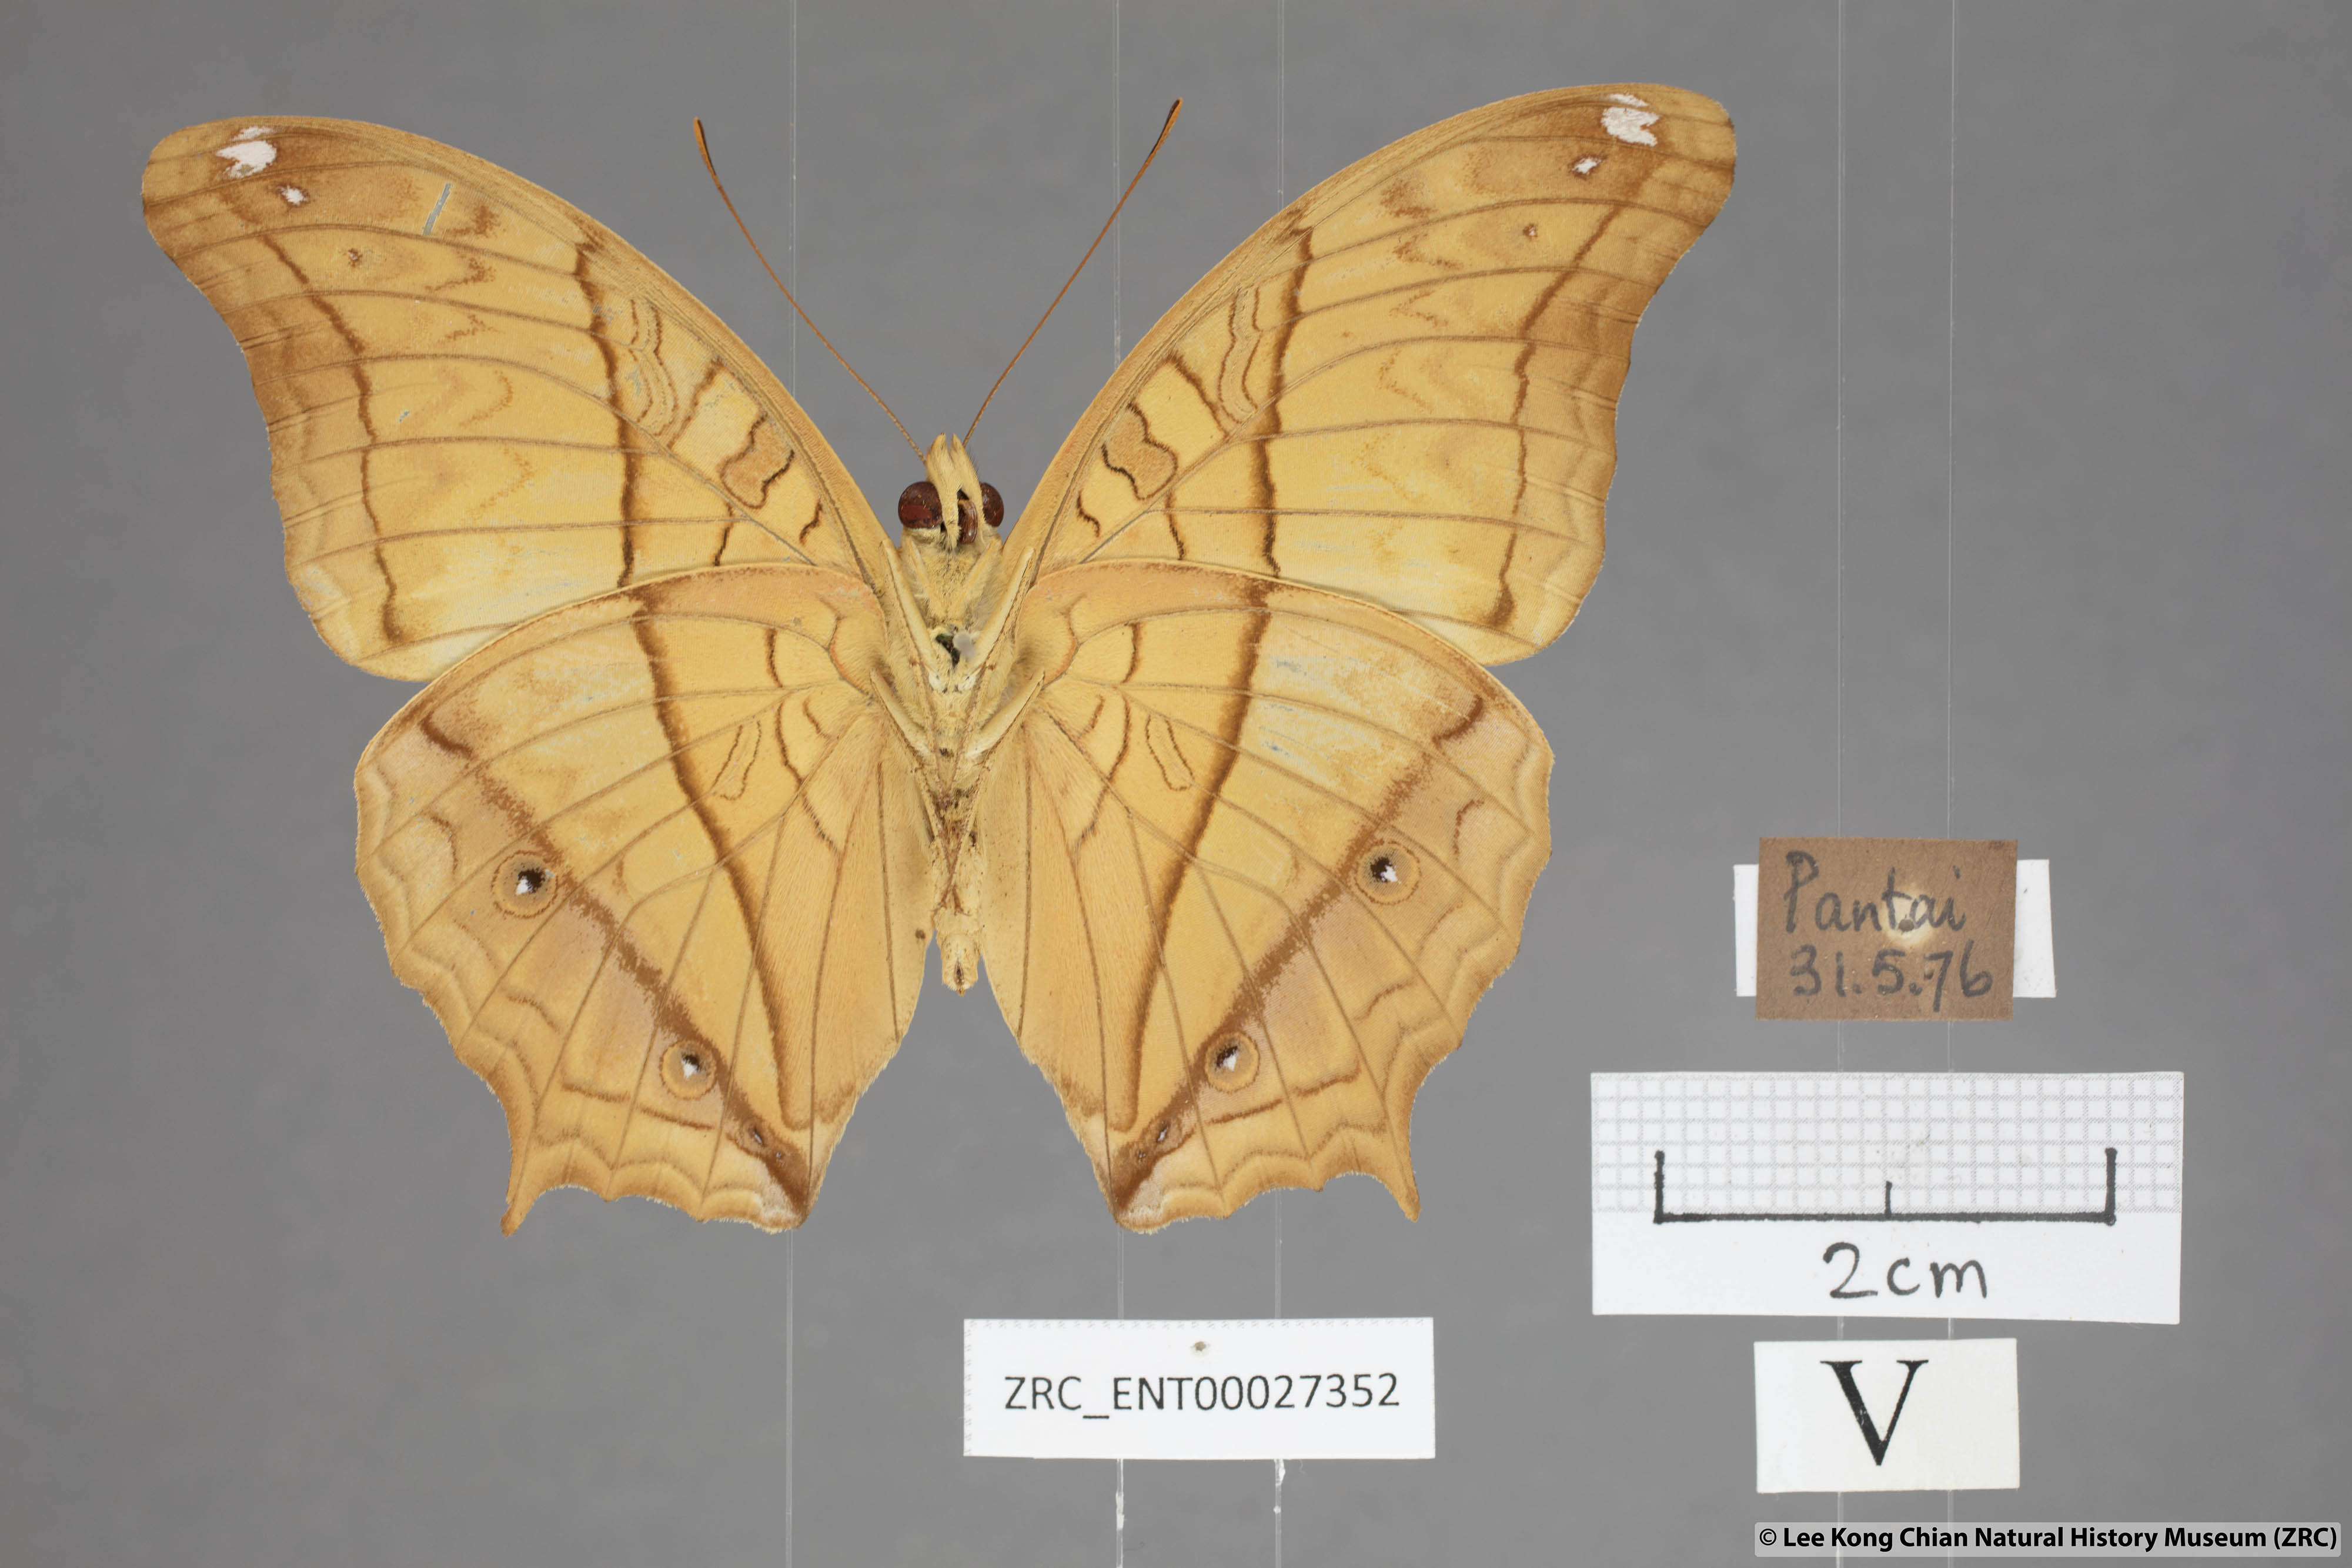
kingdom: Animalia
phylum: Arthropoda
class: Insecta
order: Lepidoptera
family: Nymphalidae
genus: Vindula
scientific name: Vindula deione
